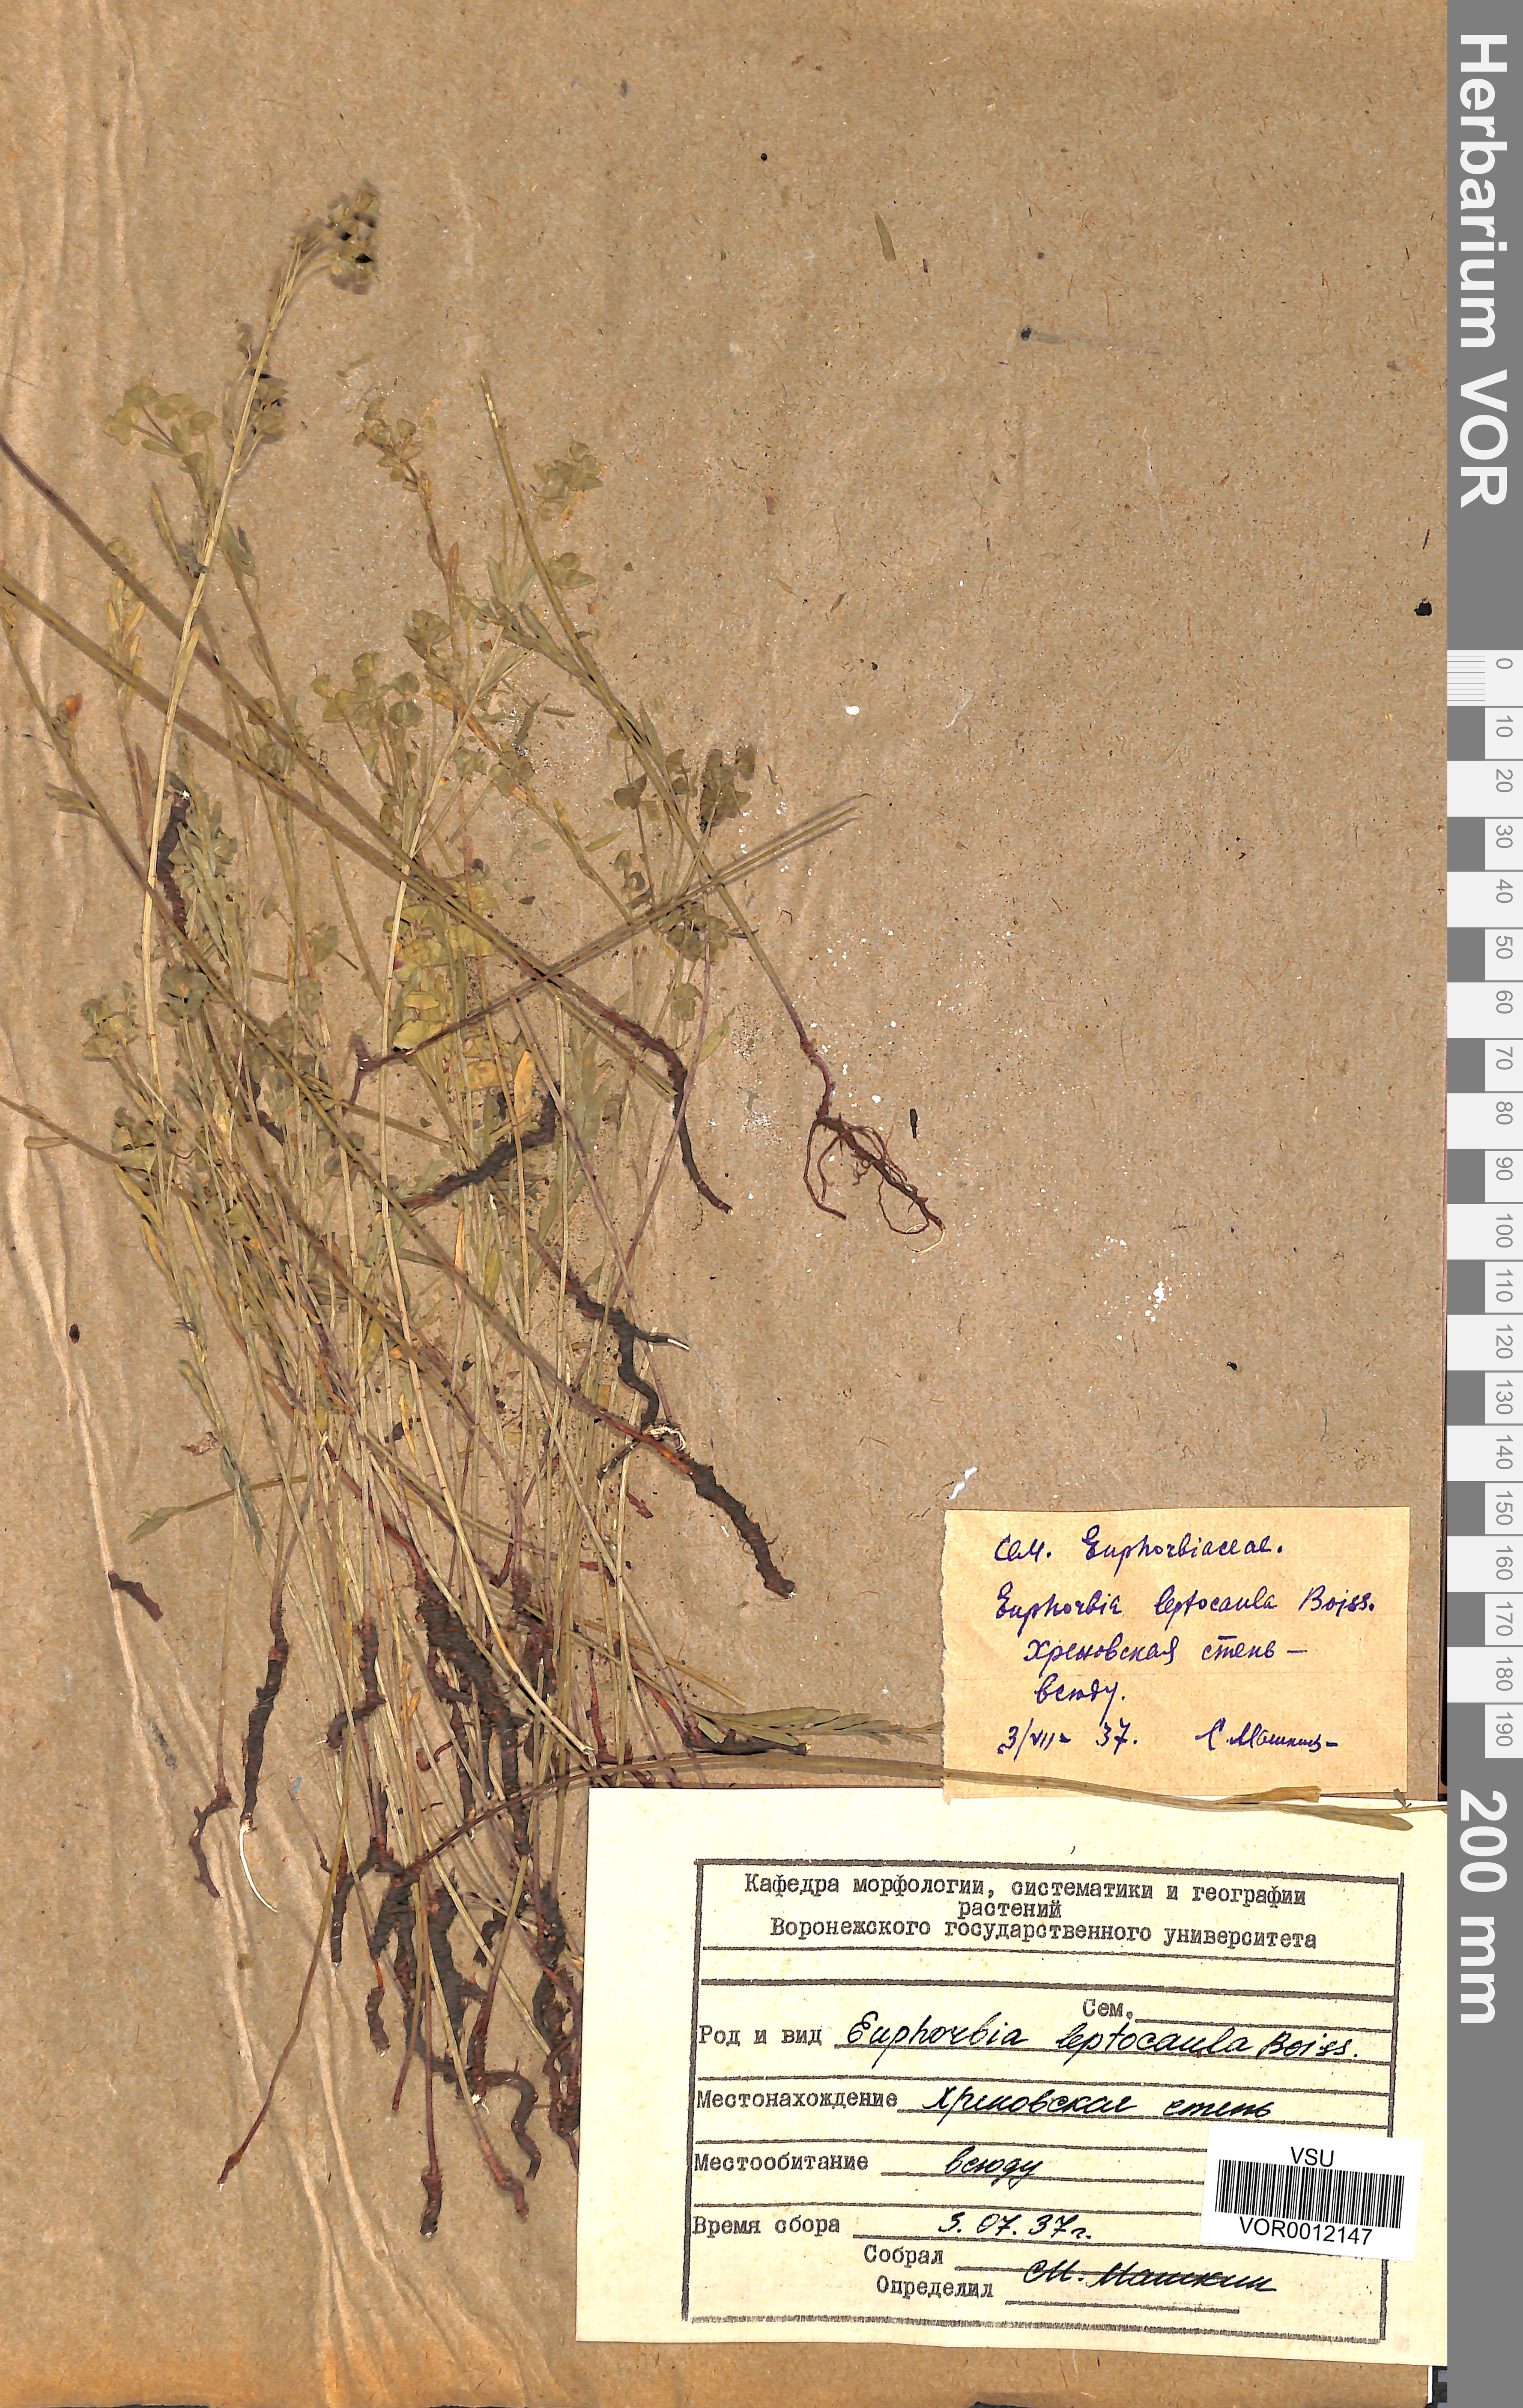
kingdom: Plantae
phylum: Tracheophyta
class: Magnoliopsida
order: Malpighiales
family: Euphorbiaceae
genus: Euphorbia
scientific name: Euphorbia leptocaula
